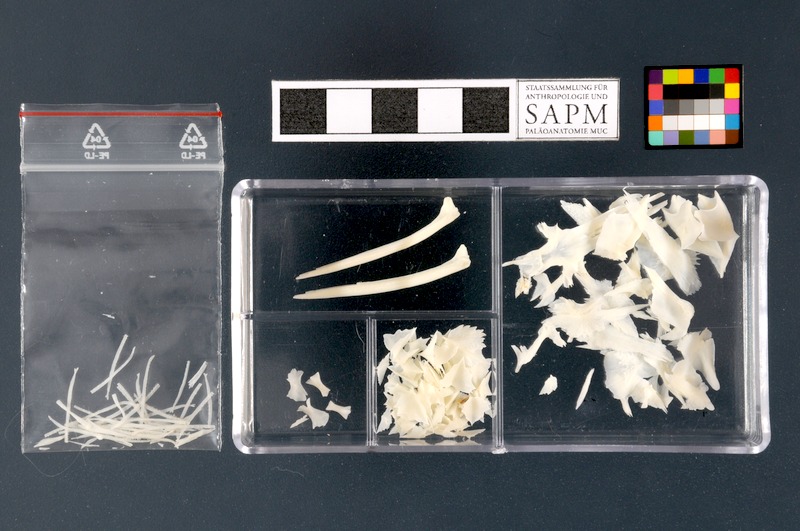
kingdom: Animalia
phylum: Chordata
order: Acipenseriformes
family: Acipenseridae
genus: Acipenser
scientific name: Acipenser ruthenus
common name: Sterlet
